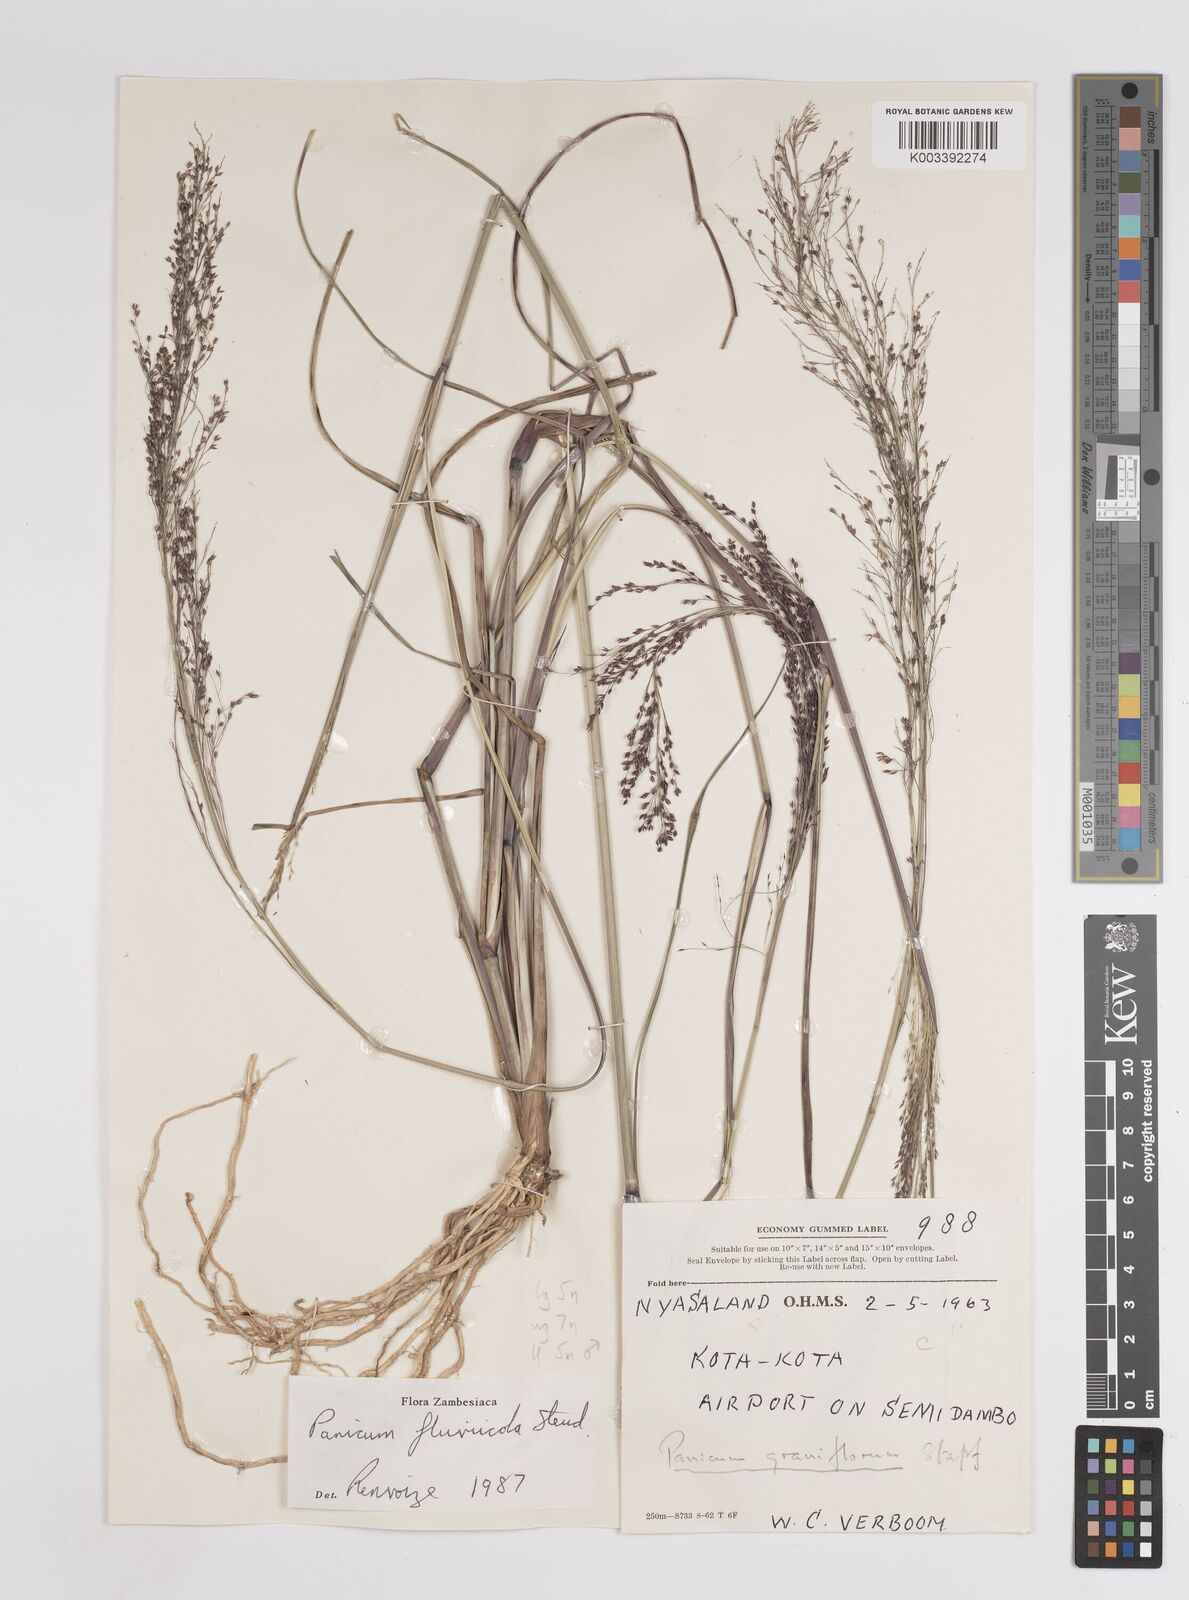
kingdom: Plantae
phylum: Tracheophyta
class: Liliopsida
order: Poales
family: Poaceae
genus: Panicum
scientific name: Panicum fluviicola
